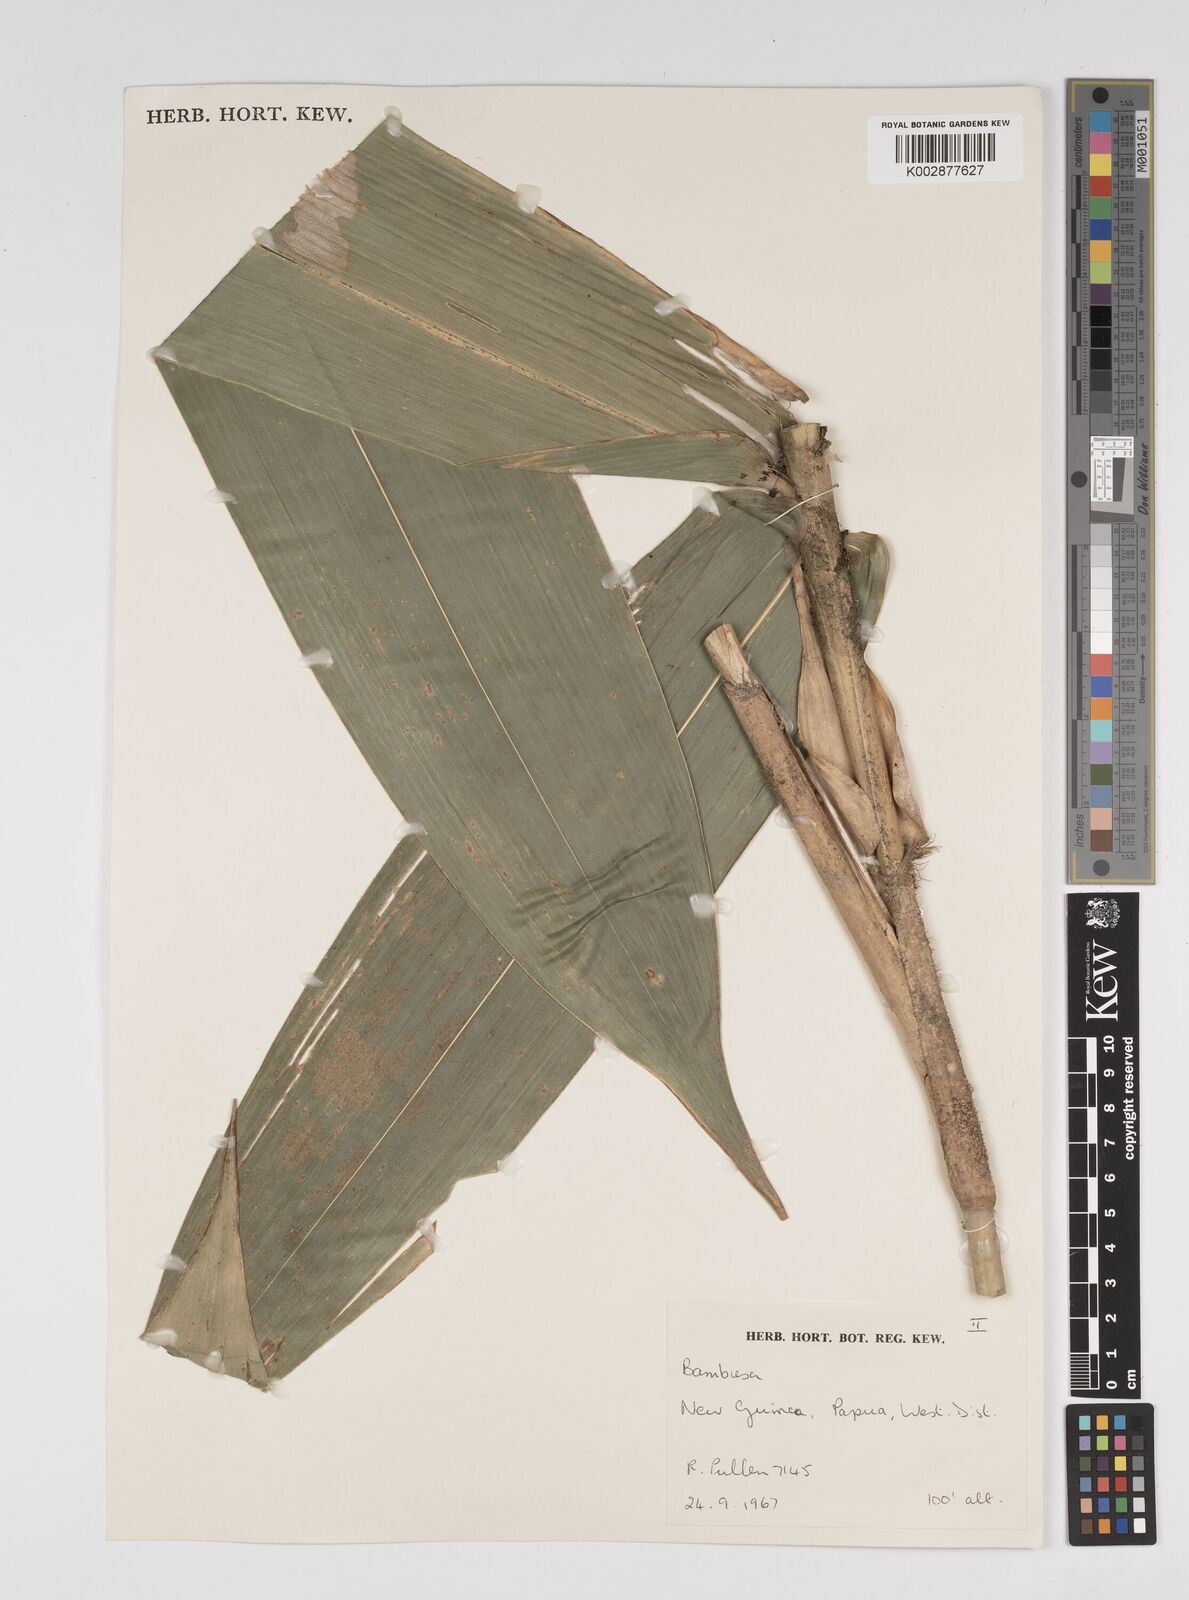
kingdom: Plantae
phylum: Tracheophyta
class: Liliopsida
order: Poales
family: Poaceae
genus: Dendrocalamus
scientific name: Dendrocalamus strictus
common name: Male bamboo
